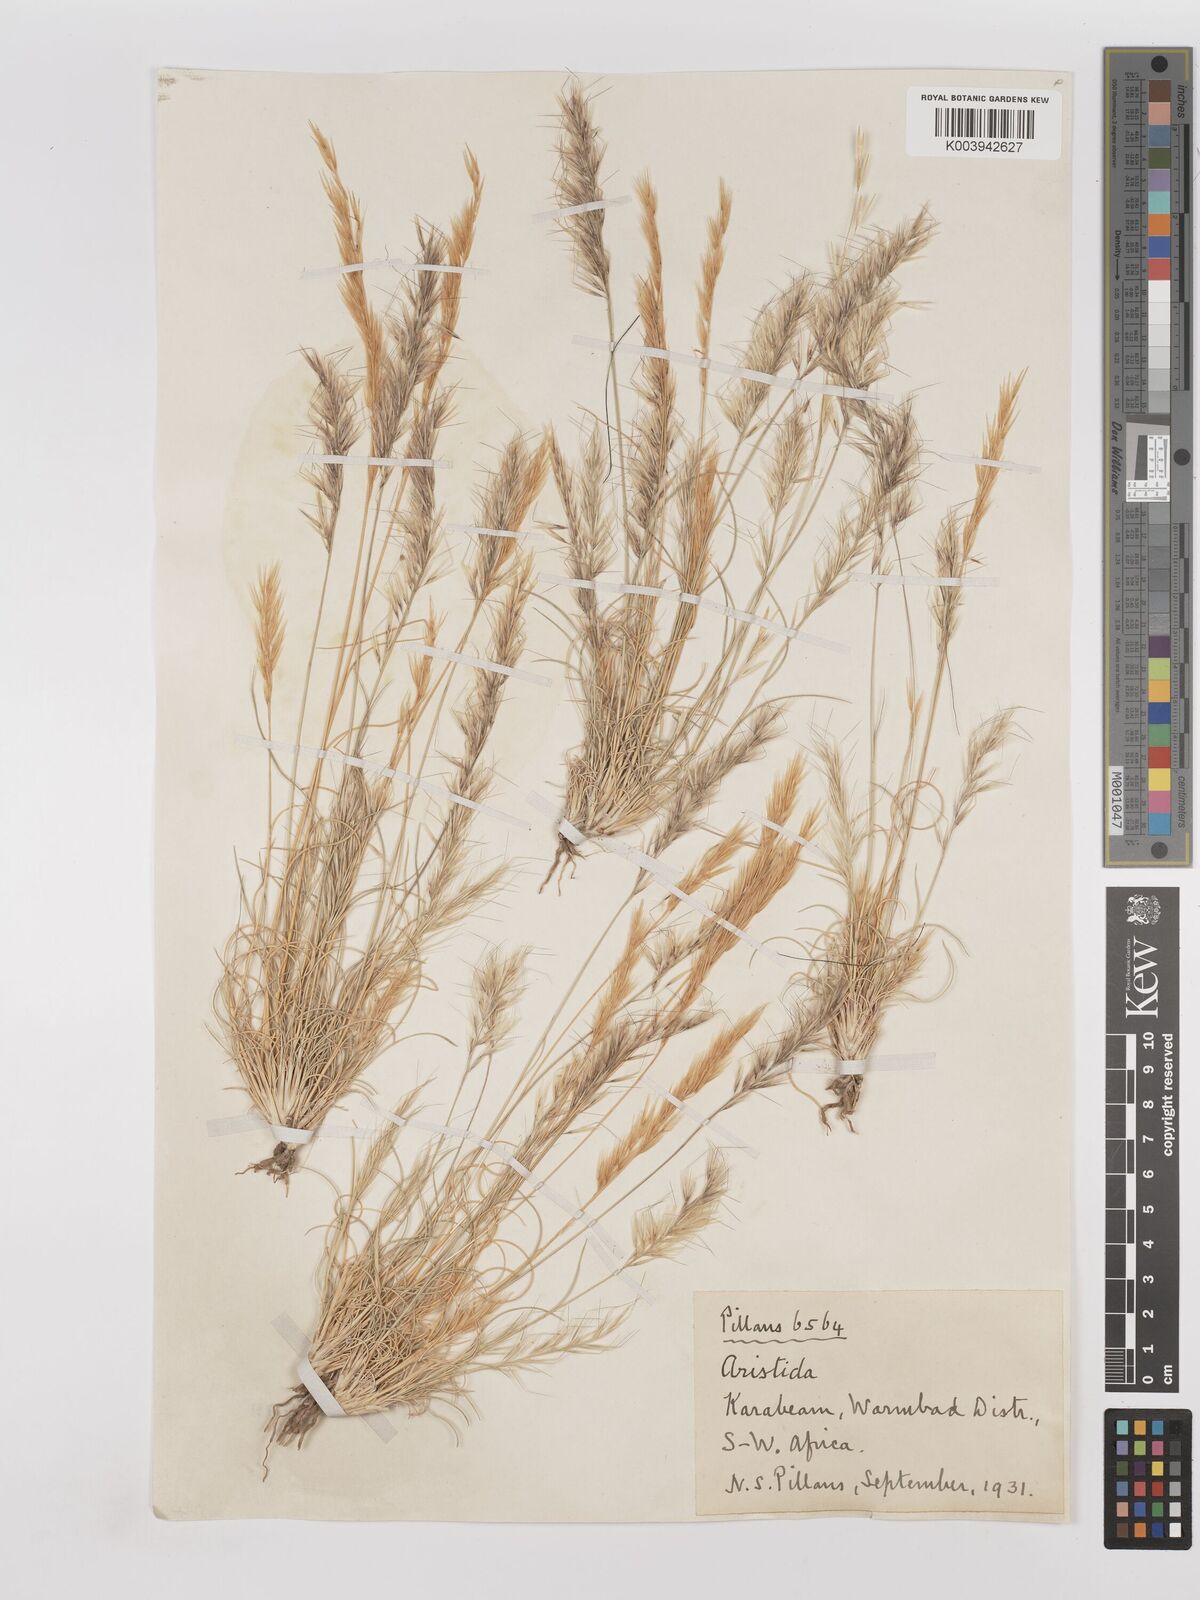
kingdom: Plantae
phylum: Tracheophyta
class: Liliopsida
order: Poales
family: Poaceae
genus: Stipagrostis
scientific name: Stipagrostis anomala
